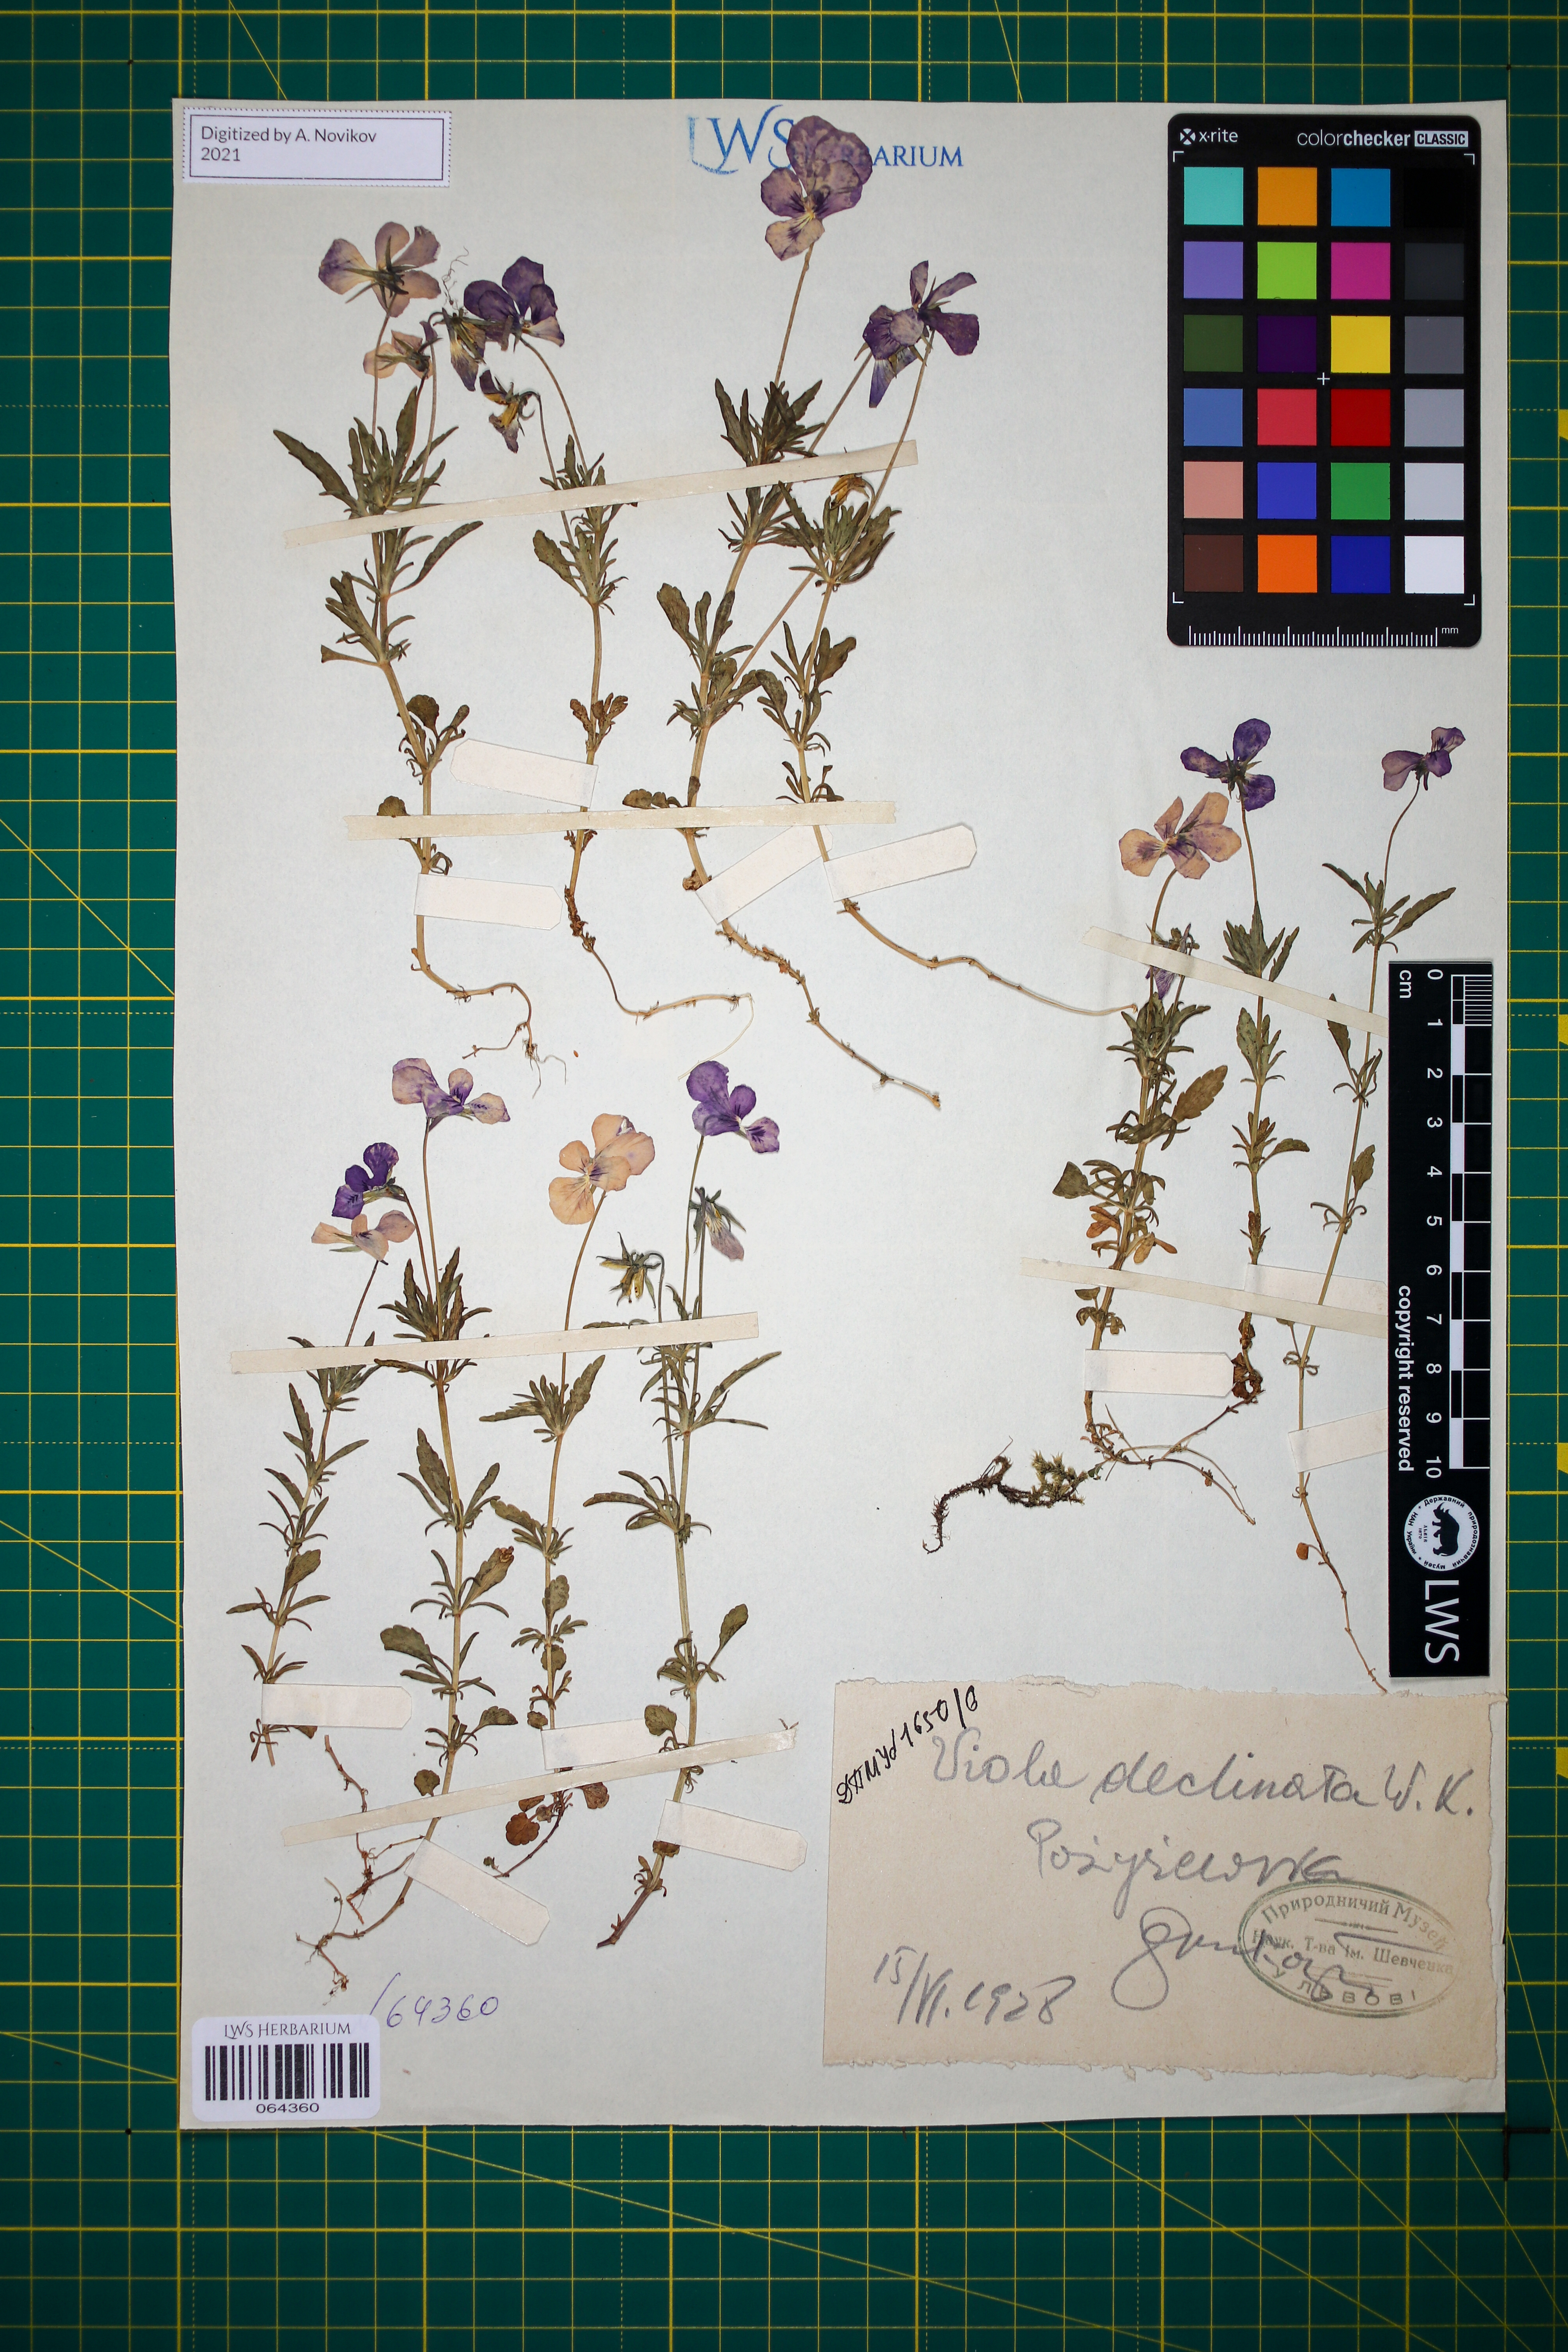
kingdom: Plantae
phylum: Tracheophyta
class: Magnoliopsida
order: Malpighiales
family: Violaceae
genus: Viola
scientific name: Viola declinata
